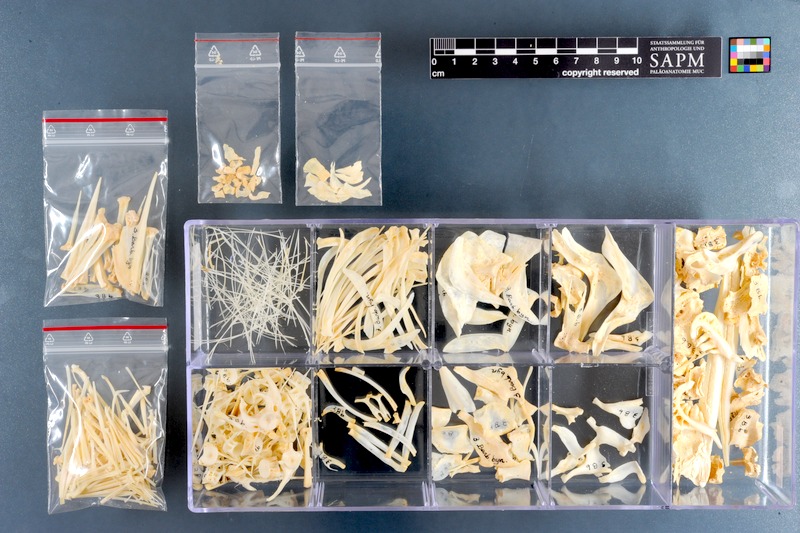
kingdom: Animalia
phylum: Chordata
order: Cypriniformes
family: Cyprinidae
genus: Labeobarbus
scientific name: Labeobarbus bynni
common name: Barbel
